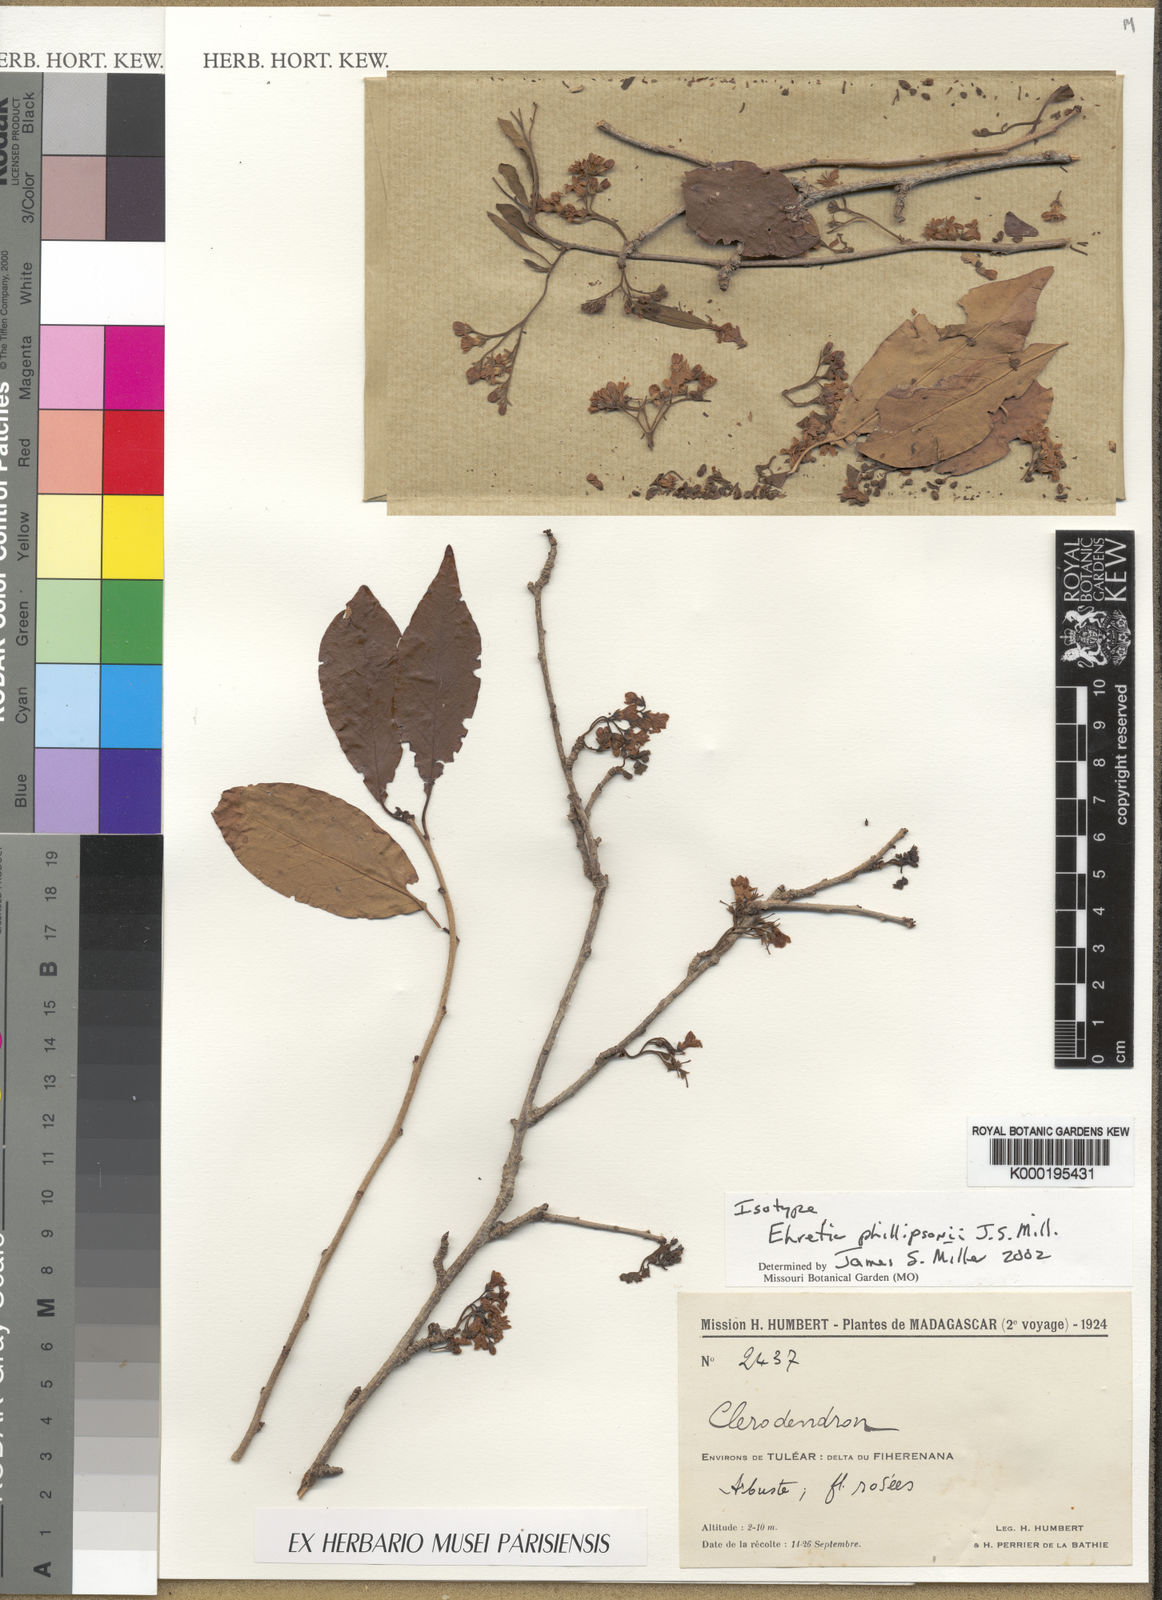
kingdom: Plantae
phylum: Tracheophyta
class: Magnoliopsida
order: Boraginales
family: Ehretiaceae
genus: Ehretia
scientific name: Ehretia phillipsonii
